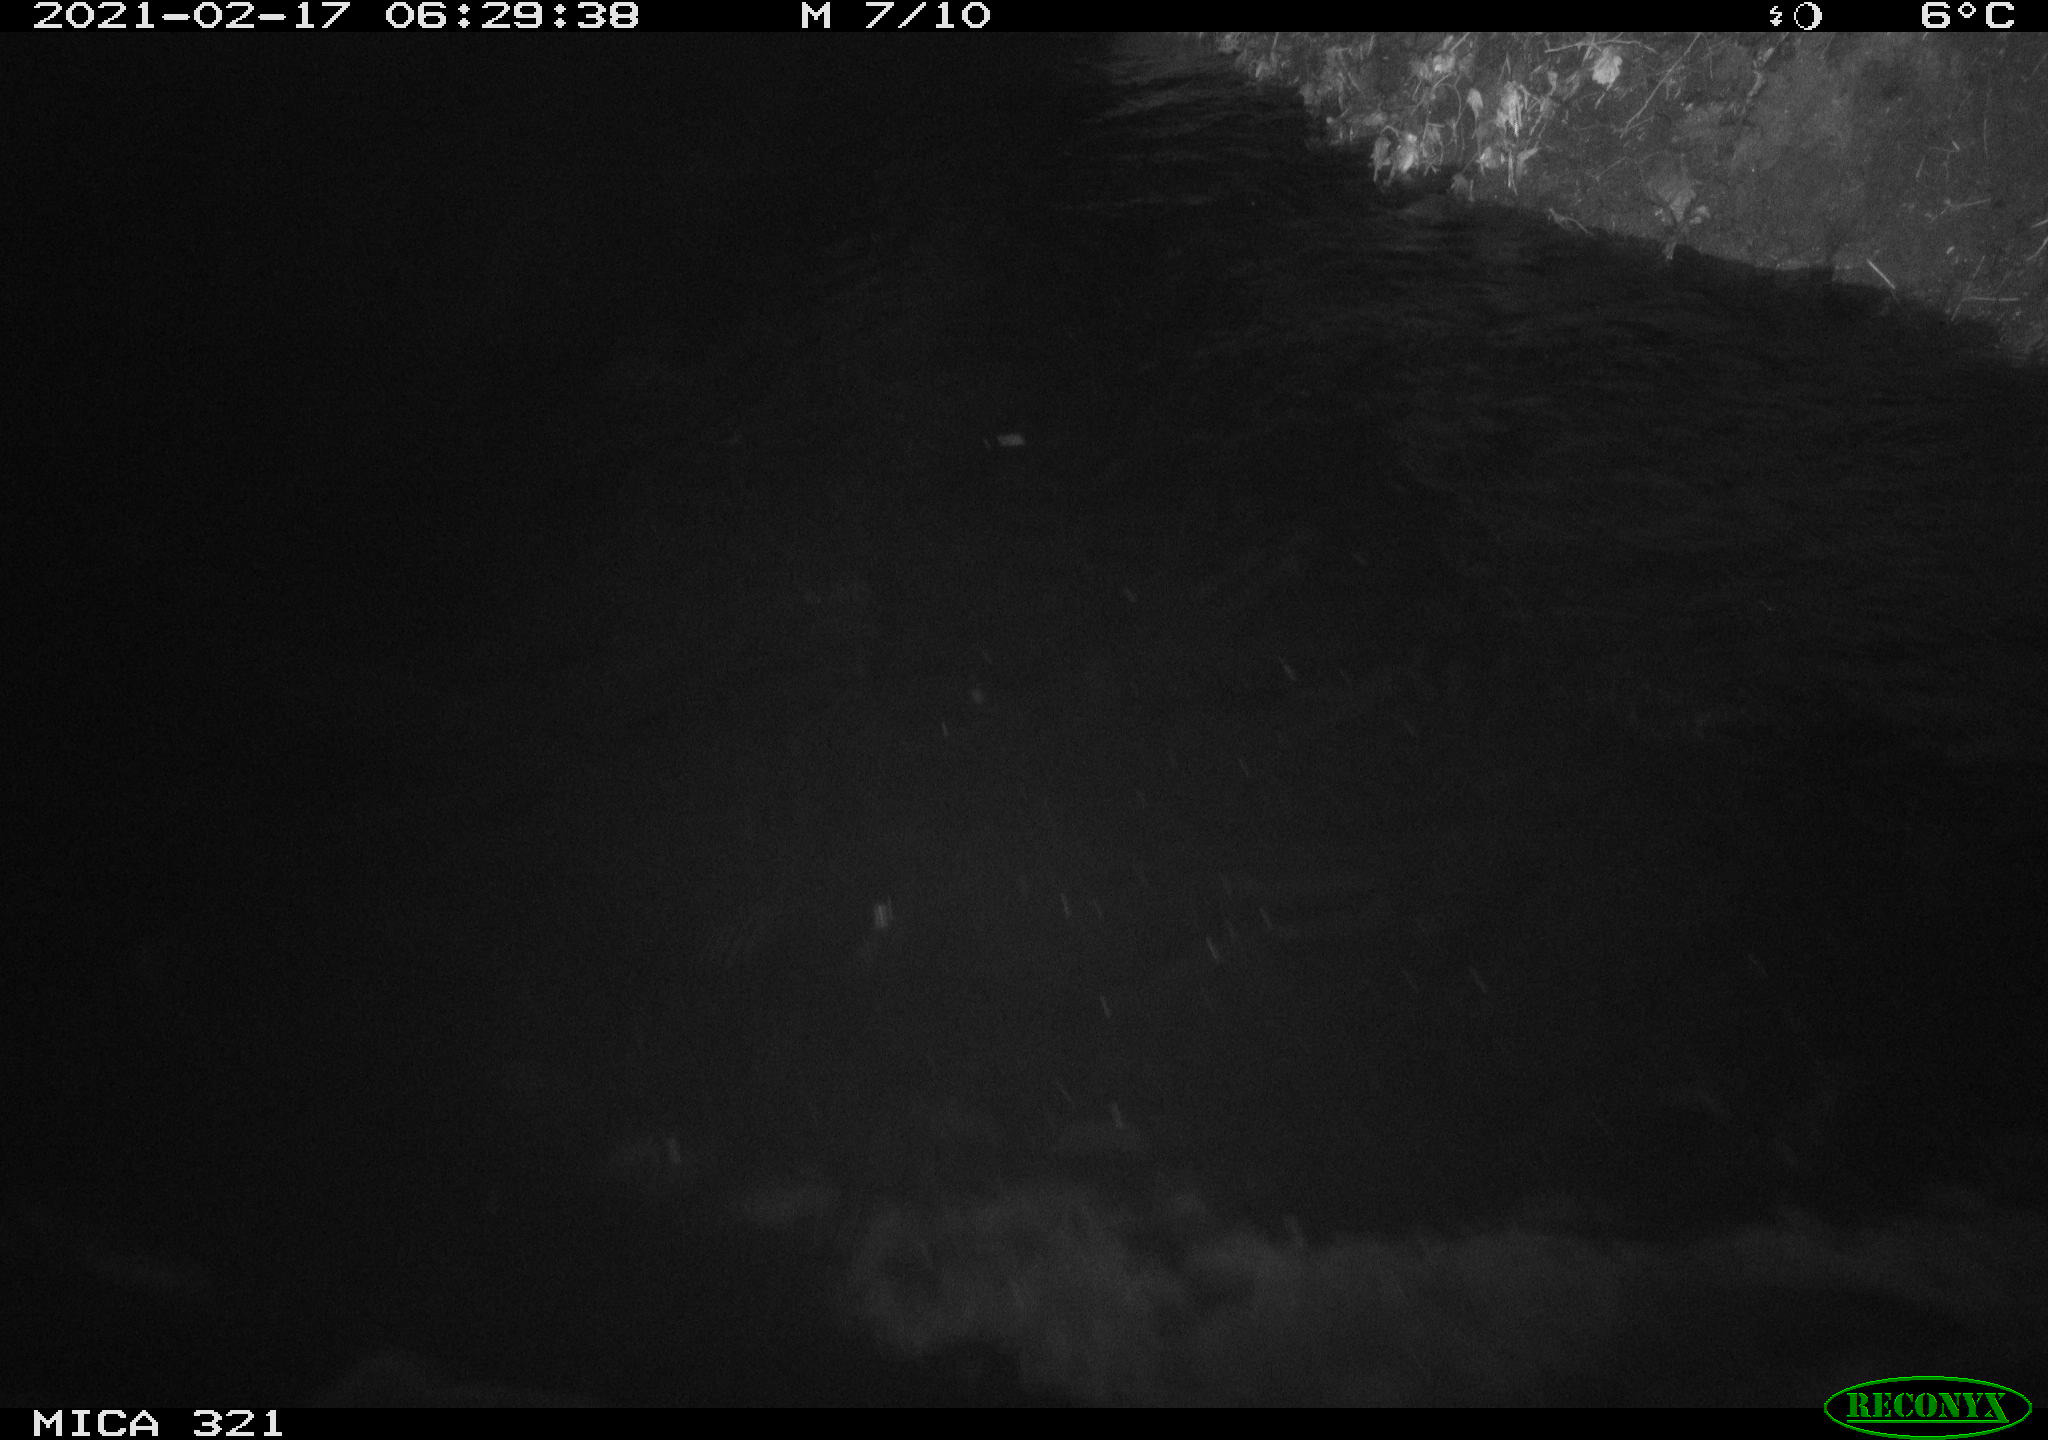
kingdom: Animalia
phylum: Chordata
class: Aves
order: Anseriformes
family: Anatidae
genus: Anas
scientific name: Anas platyrhynchos
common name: Mallard
